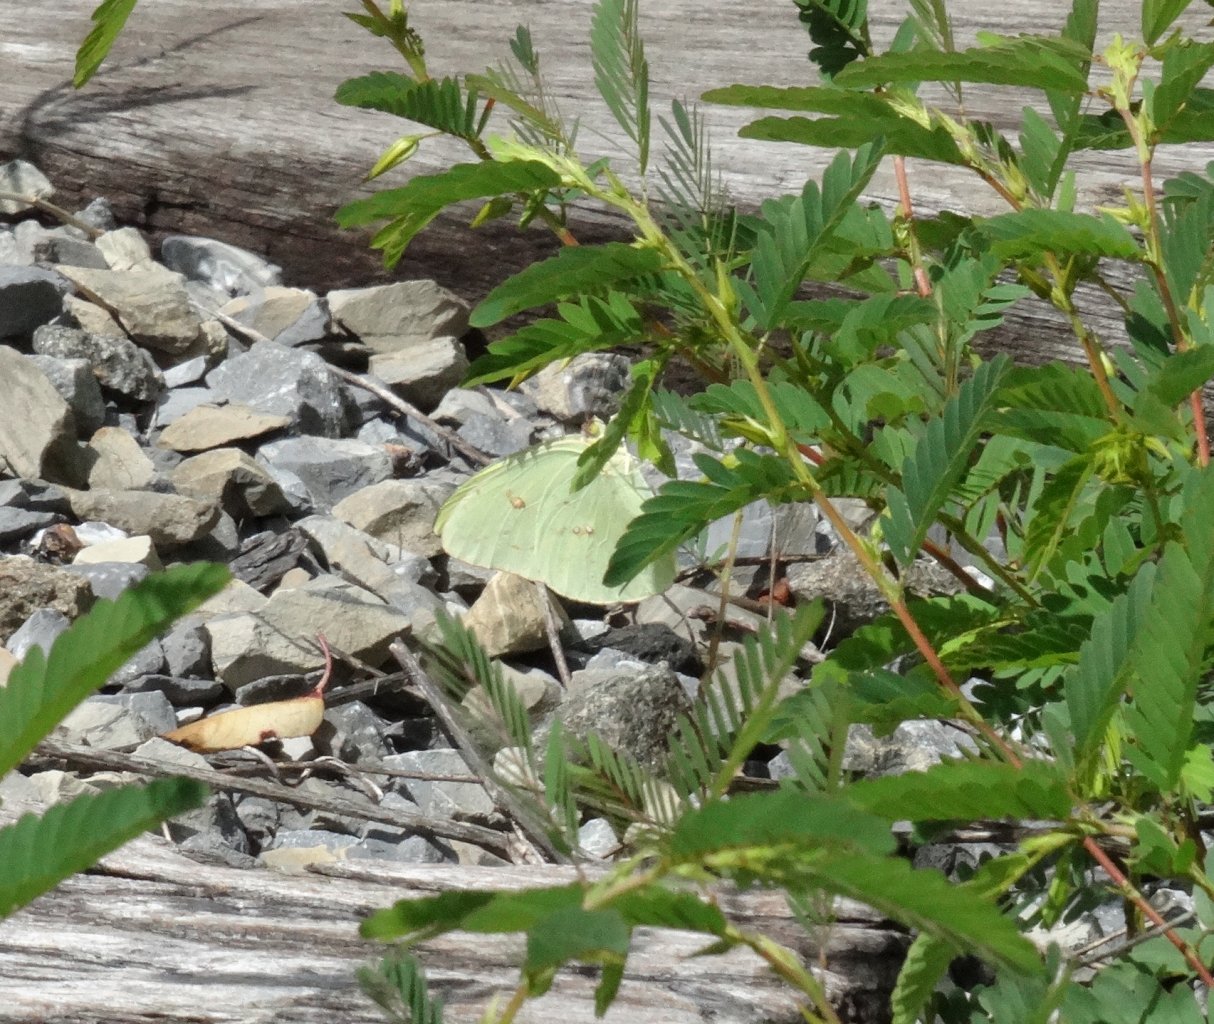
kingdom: Animalia
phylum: Arthropoda
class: Insecta
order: Lepidoptera
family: Pieridae
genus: Phoebis
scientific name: Phoebis sennae
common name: Cloudless Sulphur
